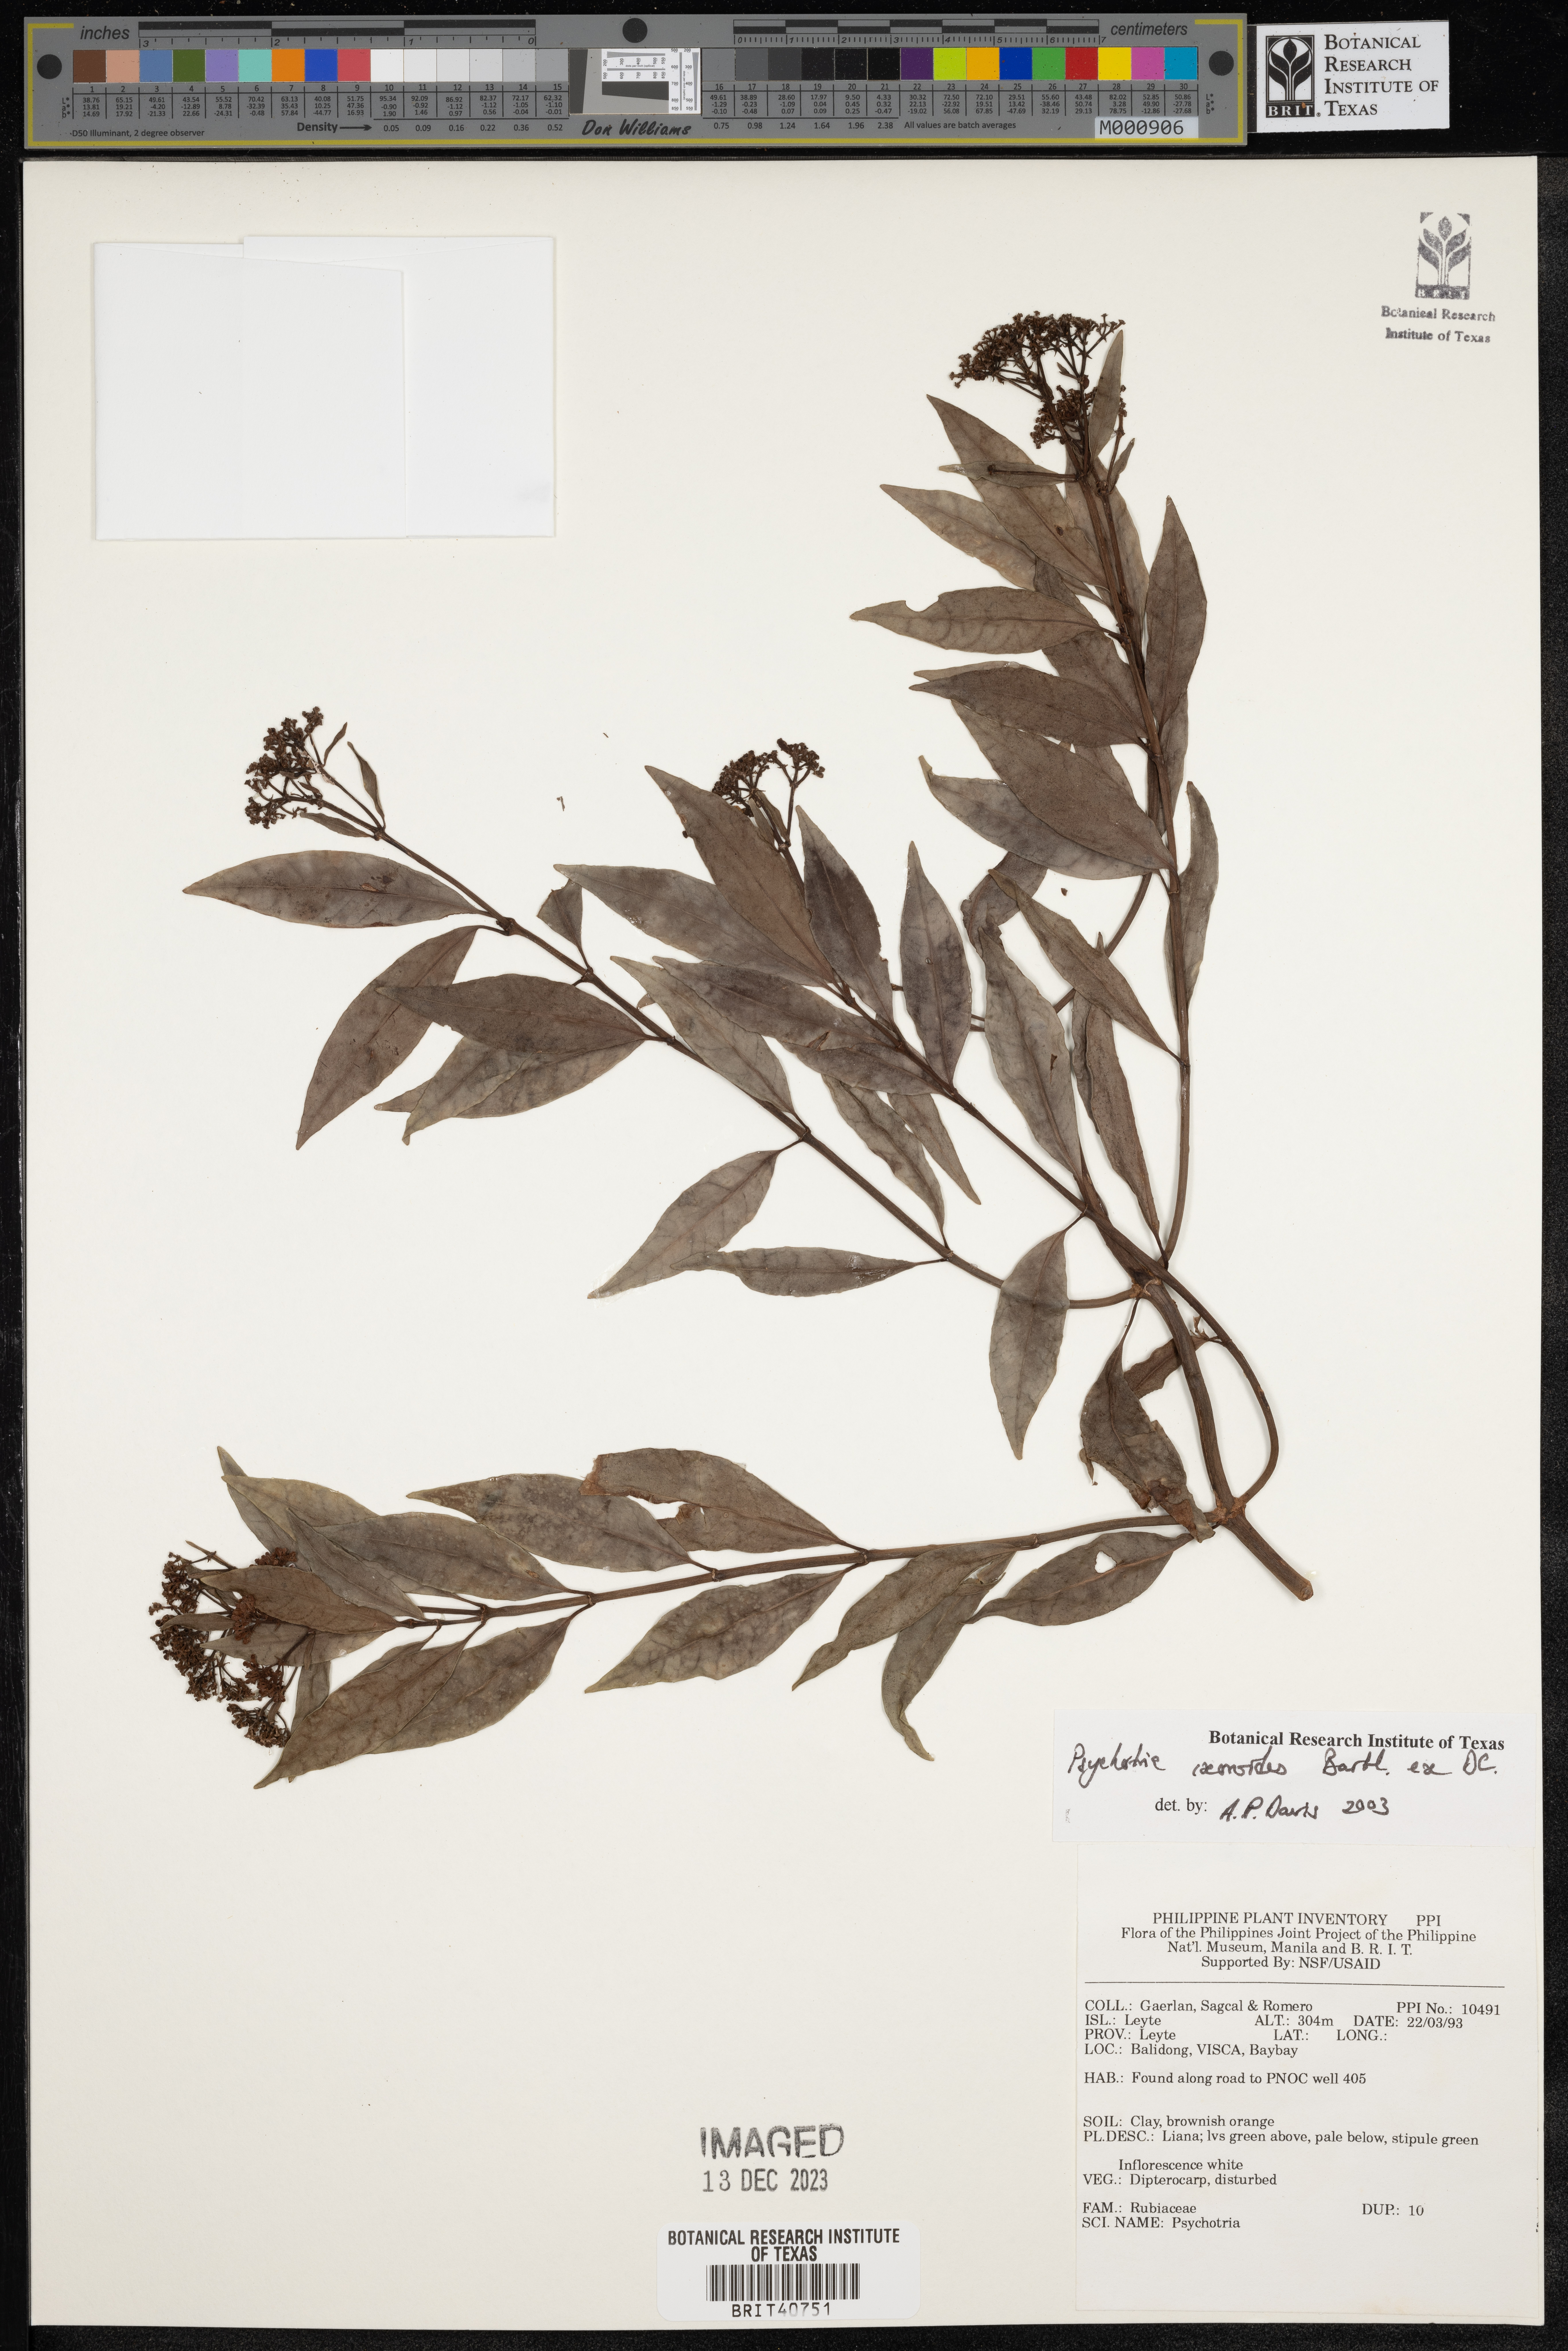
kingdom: Plantae
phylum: Tracheophyta
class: Magnoliopsida
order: Gentianales
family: Rubiaceae
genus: Psychotria
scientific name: Psychotria ixoroides
